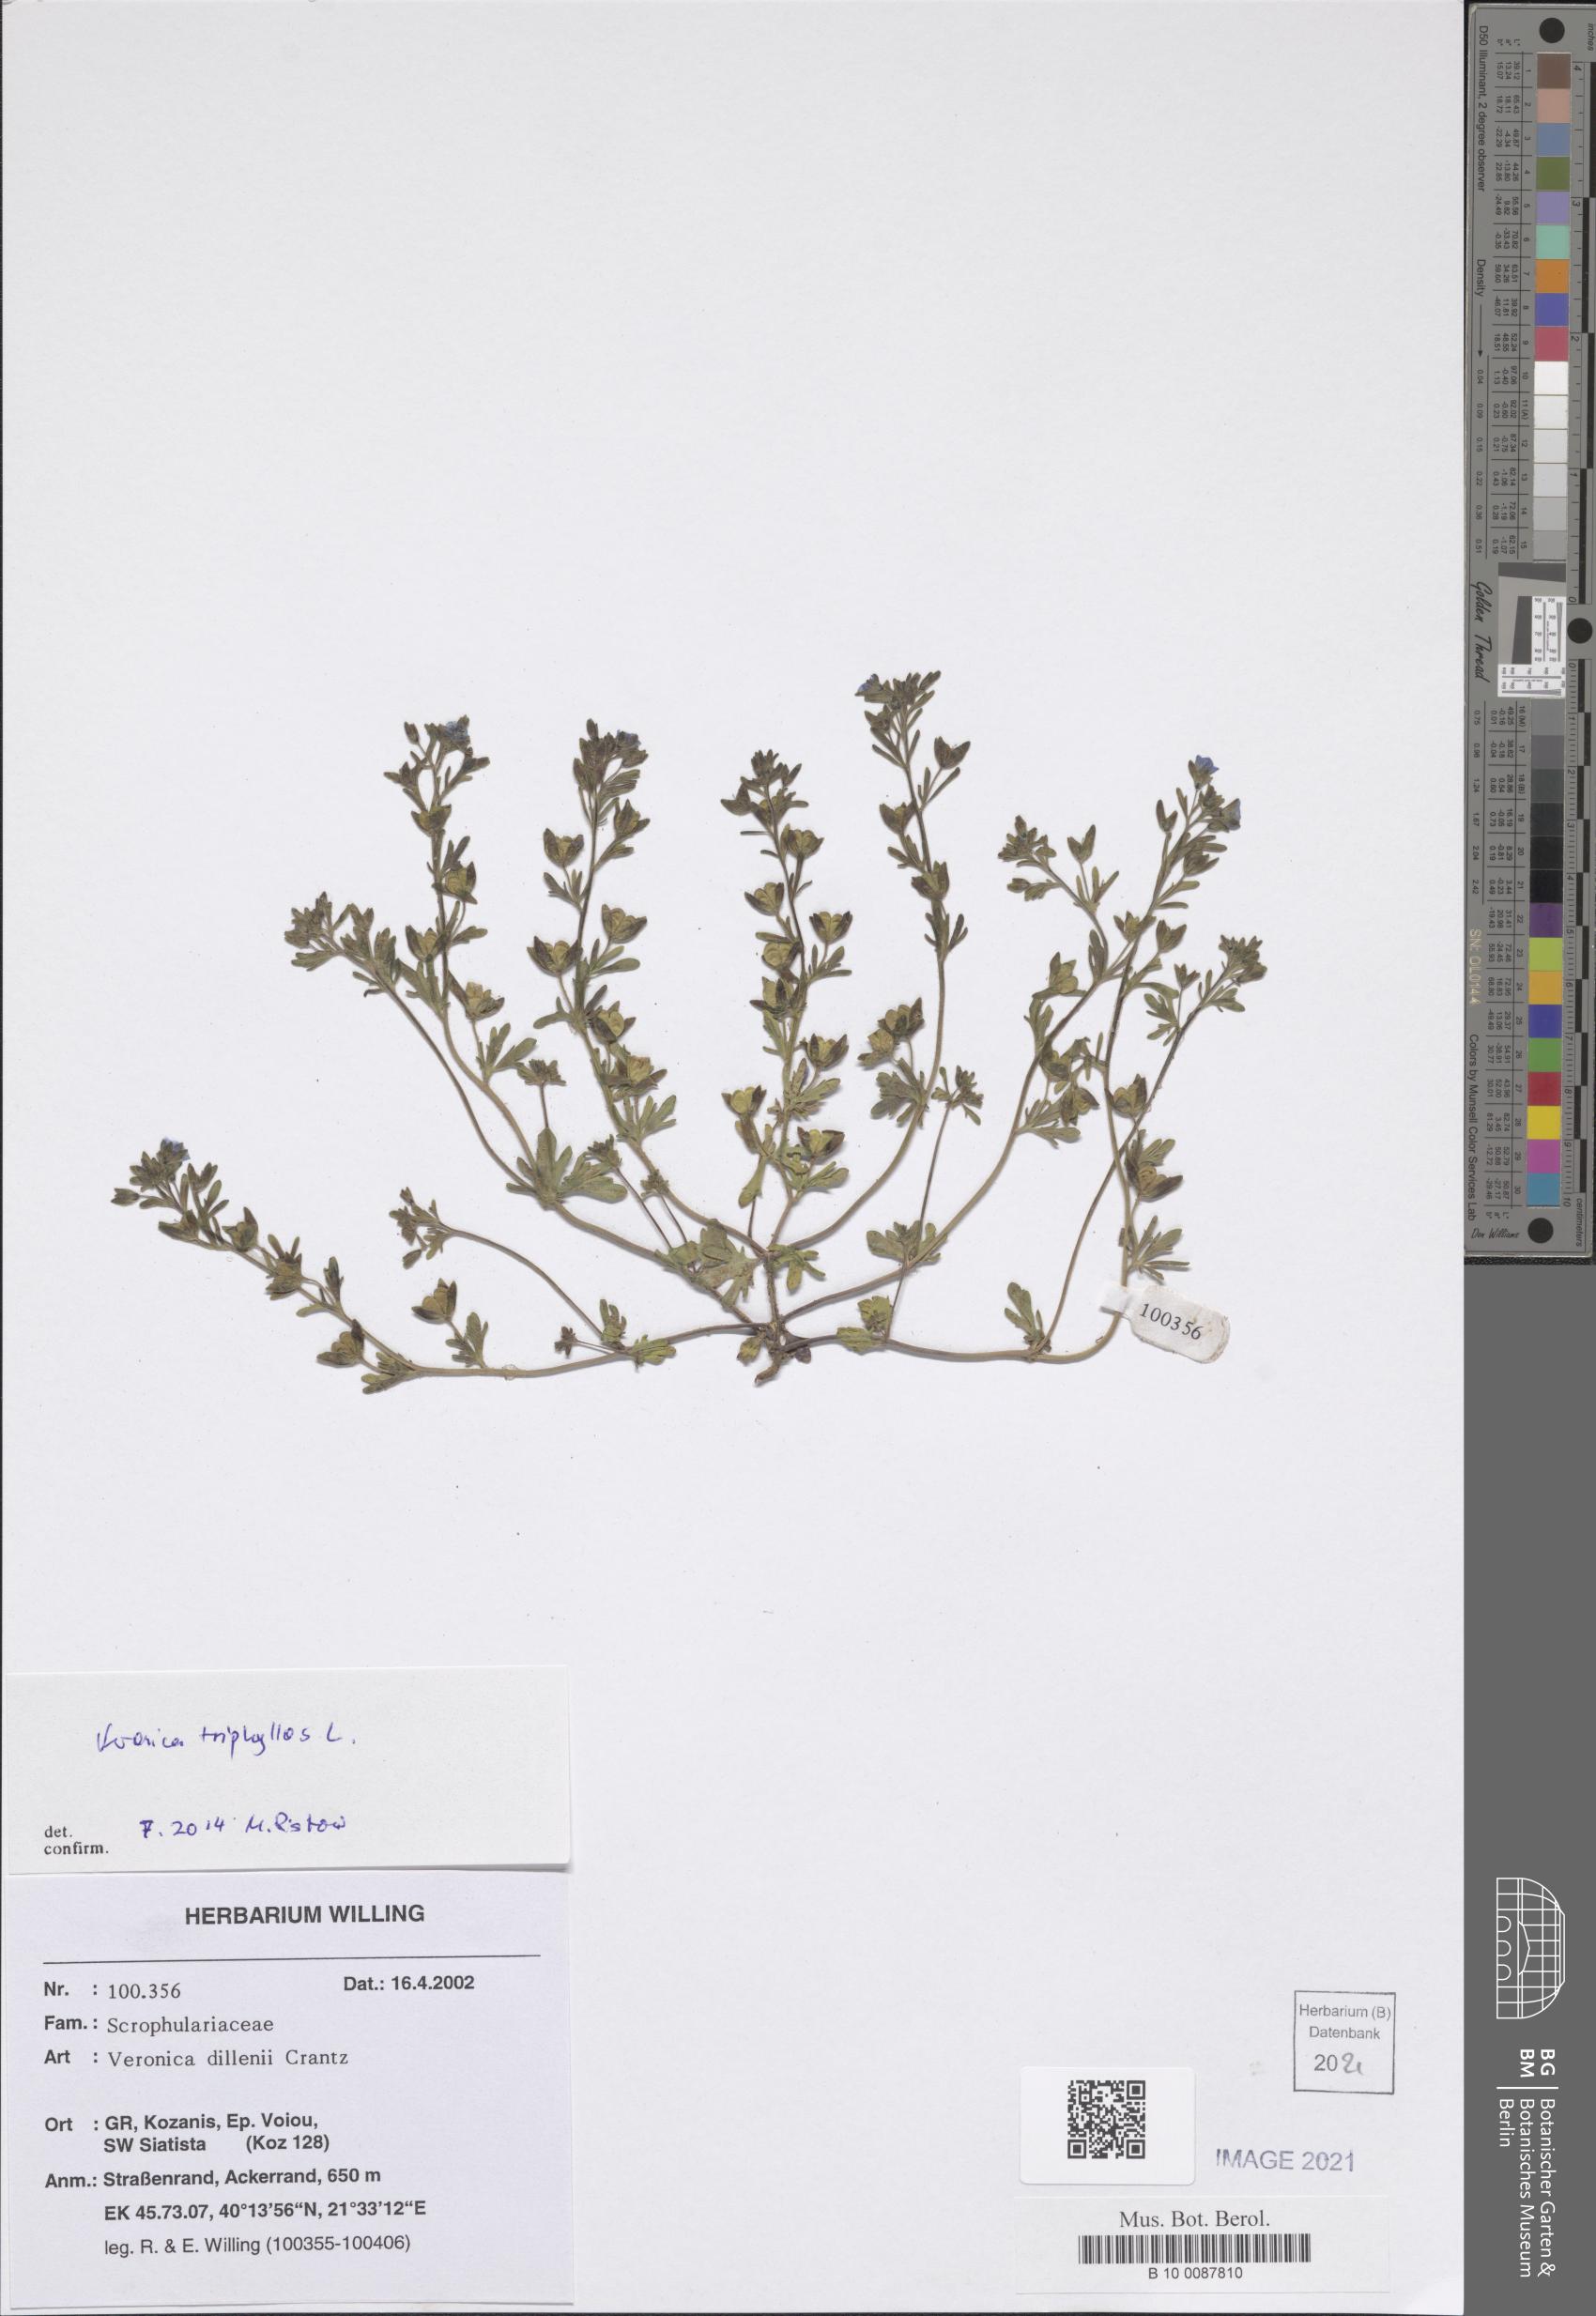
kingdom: Plantae
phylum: Tracheophyta
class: Magnoliopsida
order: Lamiales
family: Plantaginaceae
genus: Veronica
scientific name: Veronica triphyllos
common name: Fingered speedwell
